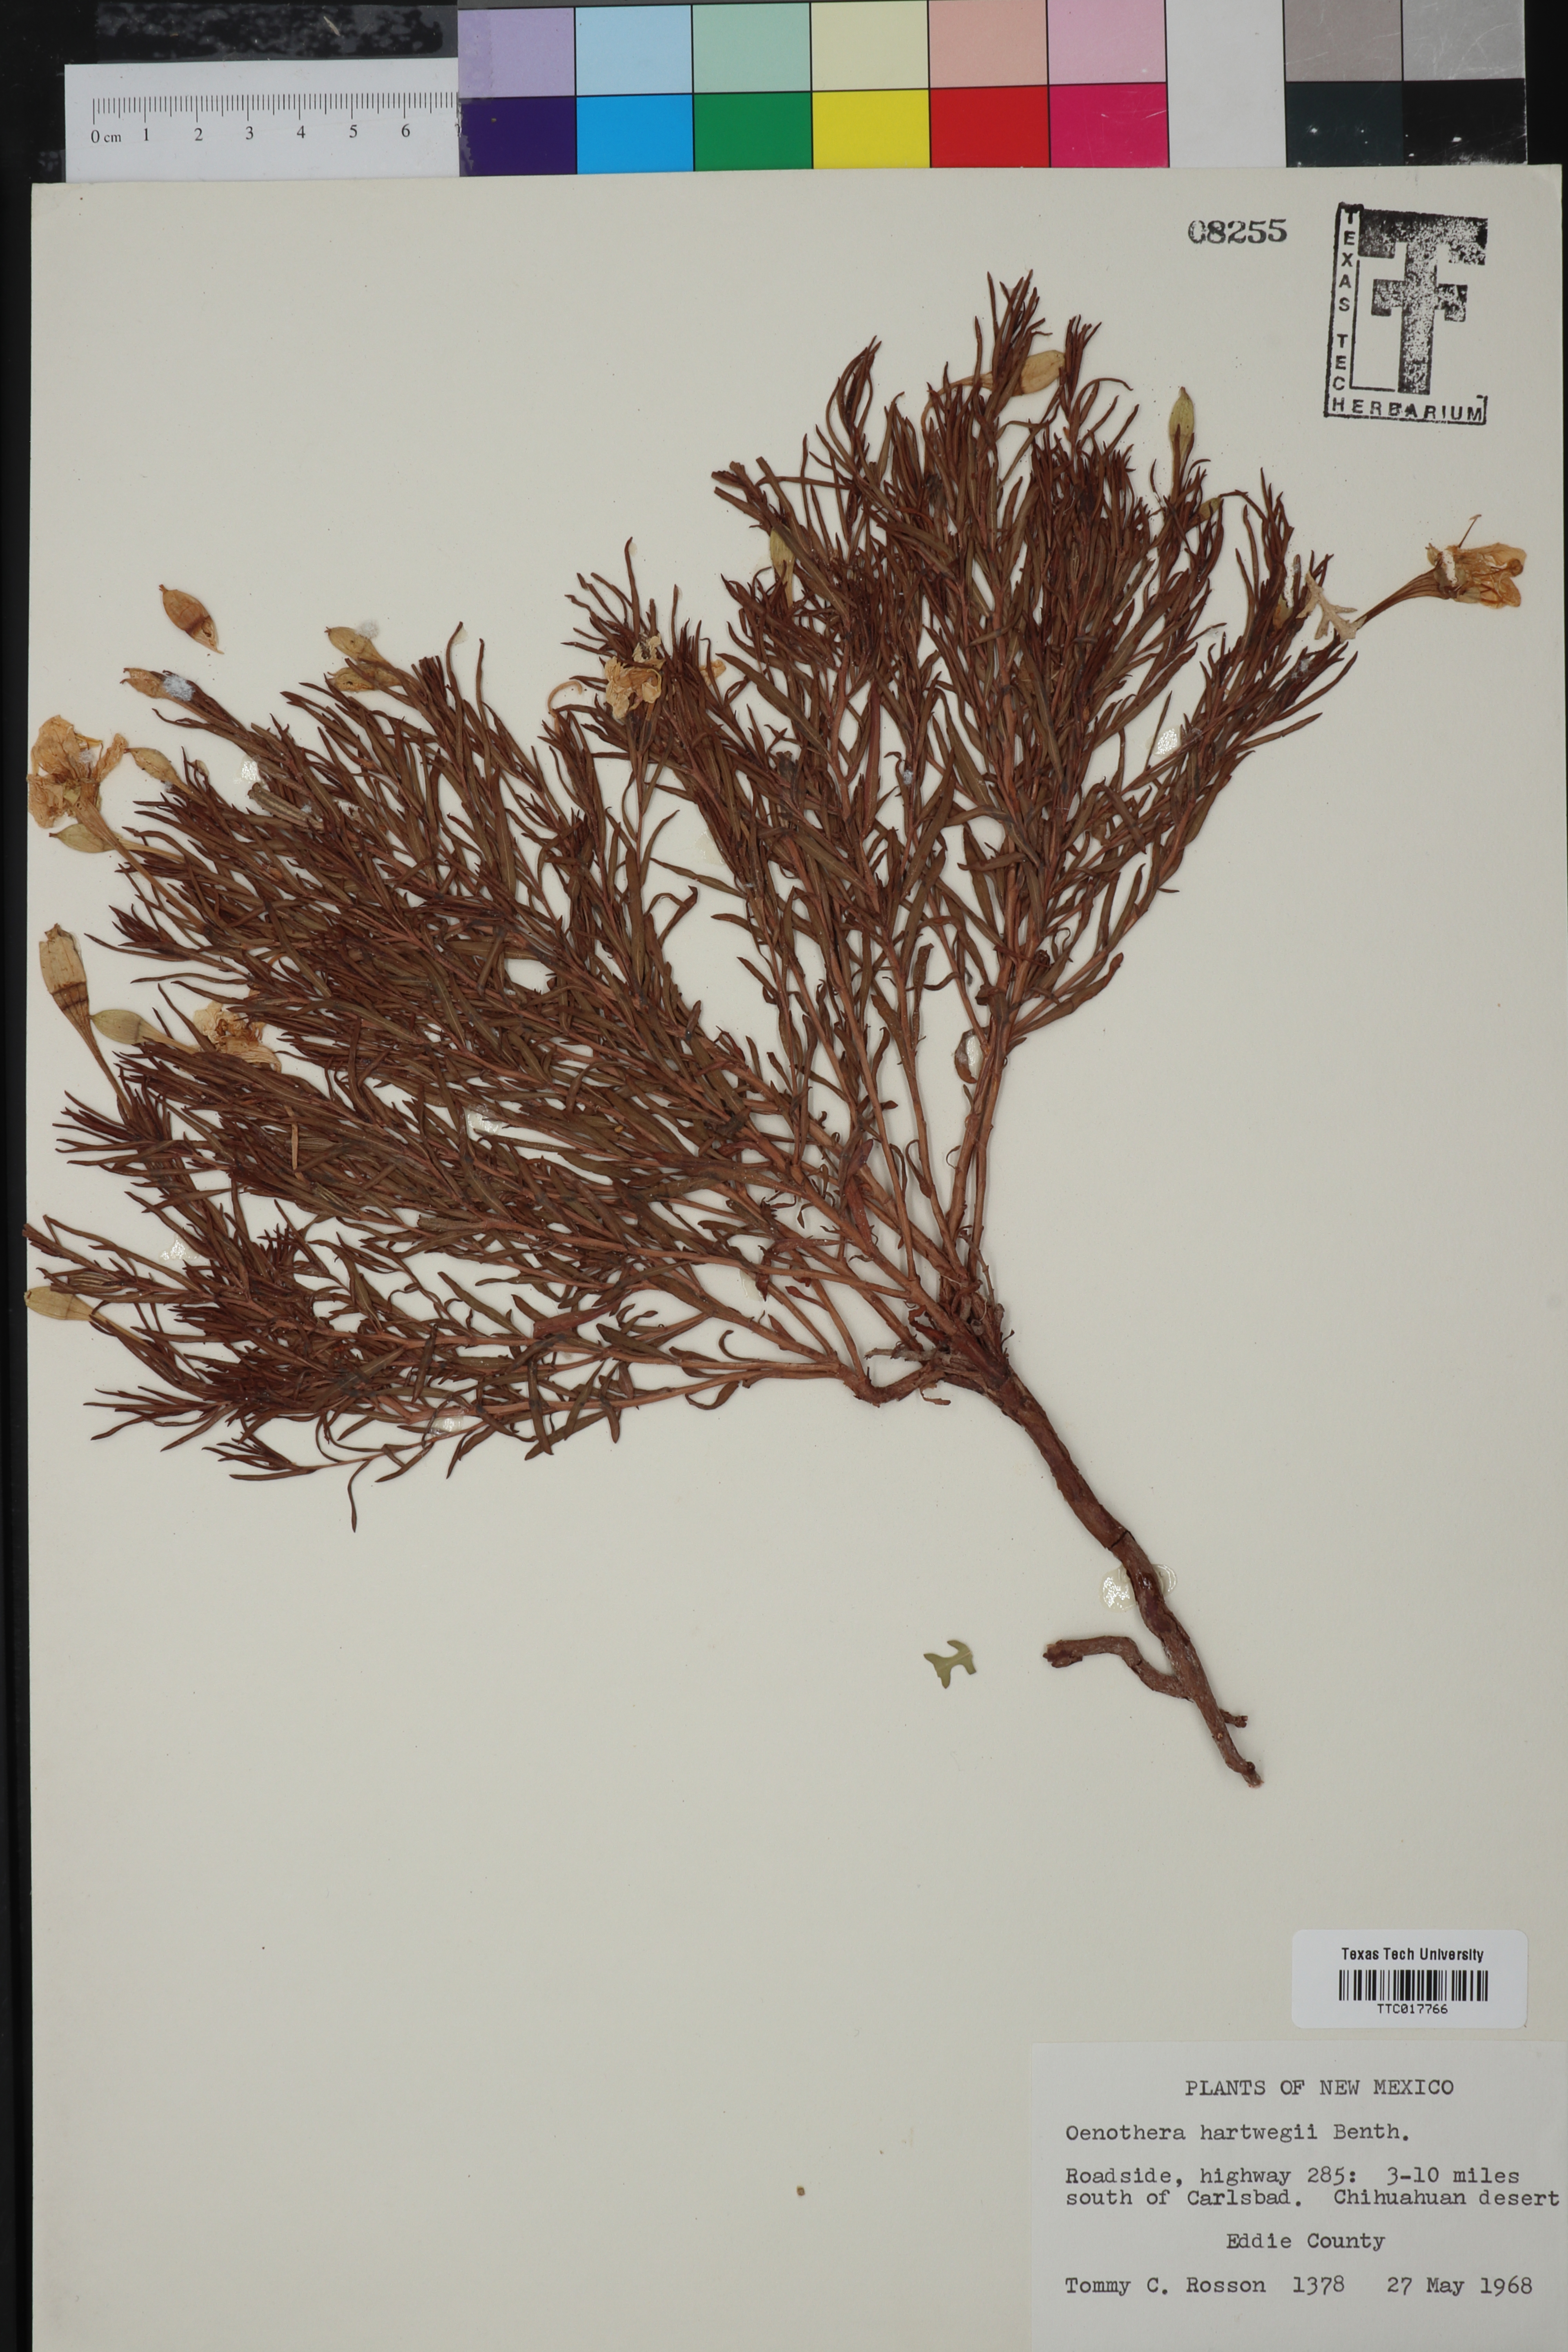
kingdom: Plantae
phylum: Tracheophyta
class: Magnoliopsida
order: Myrtales
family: Onagraceae
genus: Oenothera
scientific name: Oenothera hartwegii
